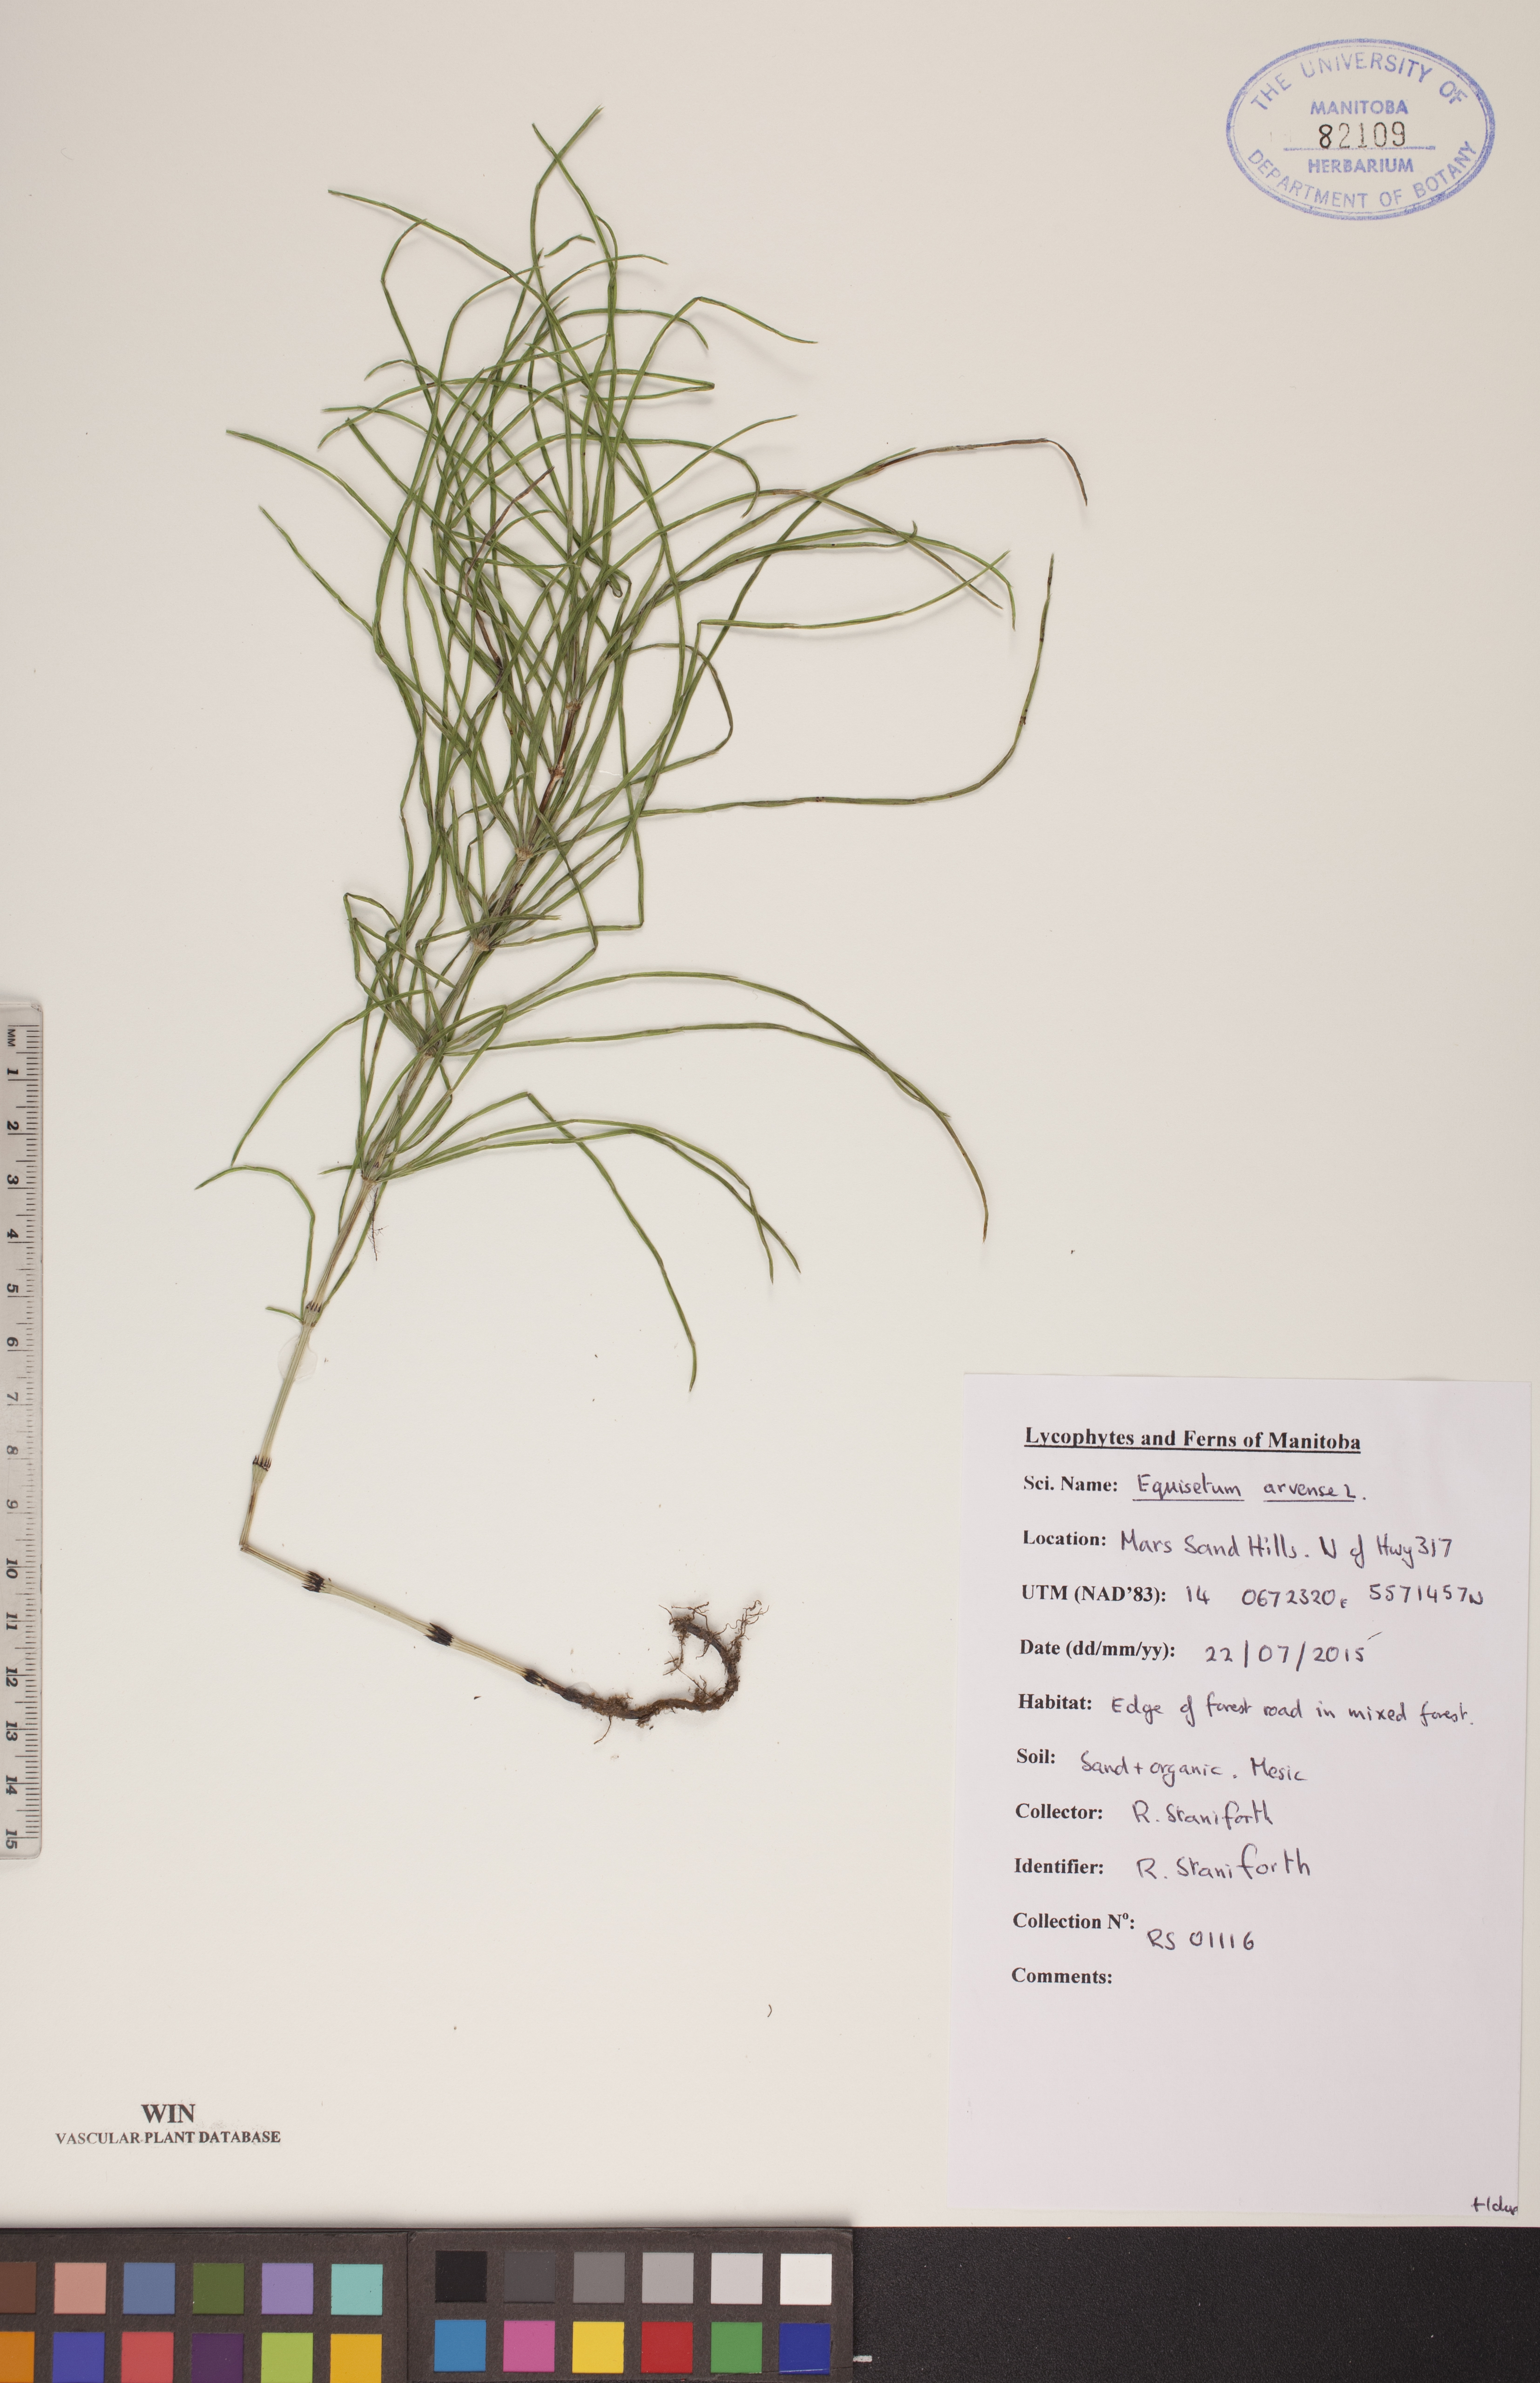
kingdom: Plantae
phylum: Tracheophyta
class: Polypodiopsida
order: Equisetales
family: Equisetaceae
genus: Equisetum
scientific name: Equisetum arvense
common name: Field horsetail
